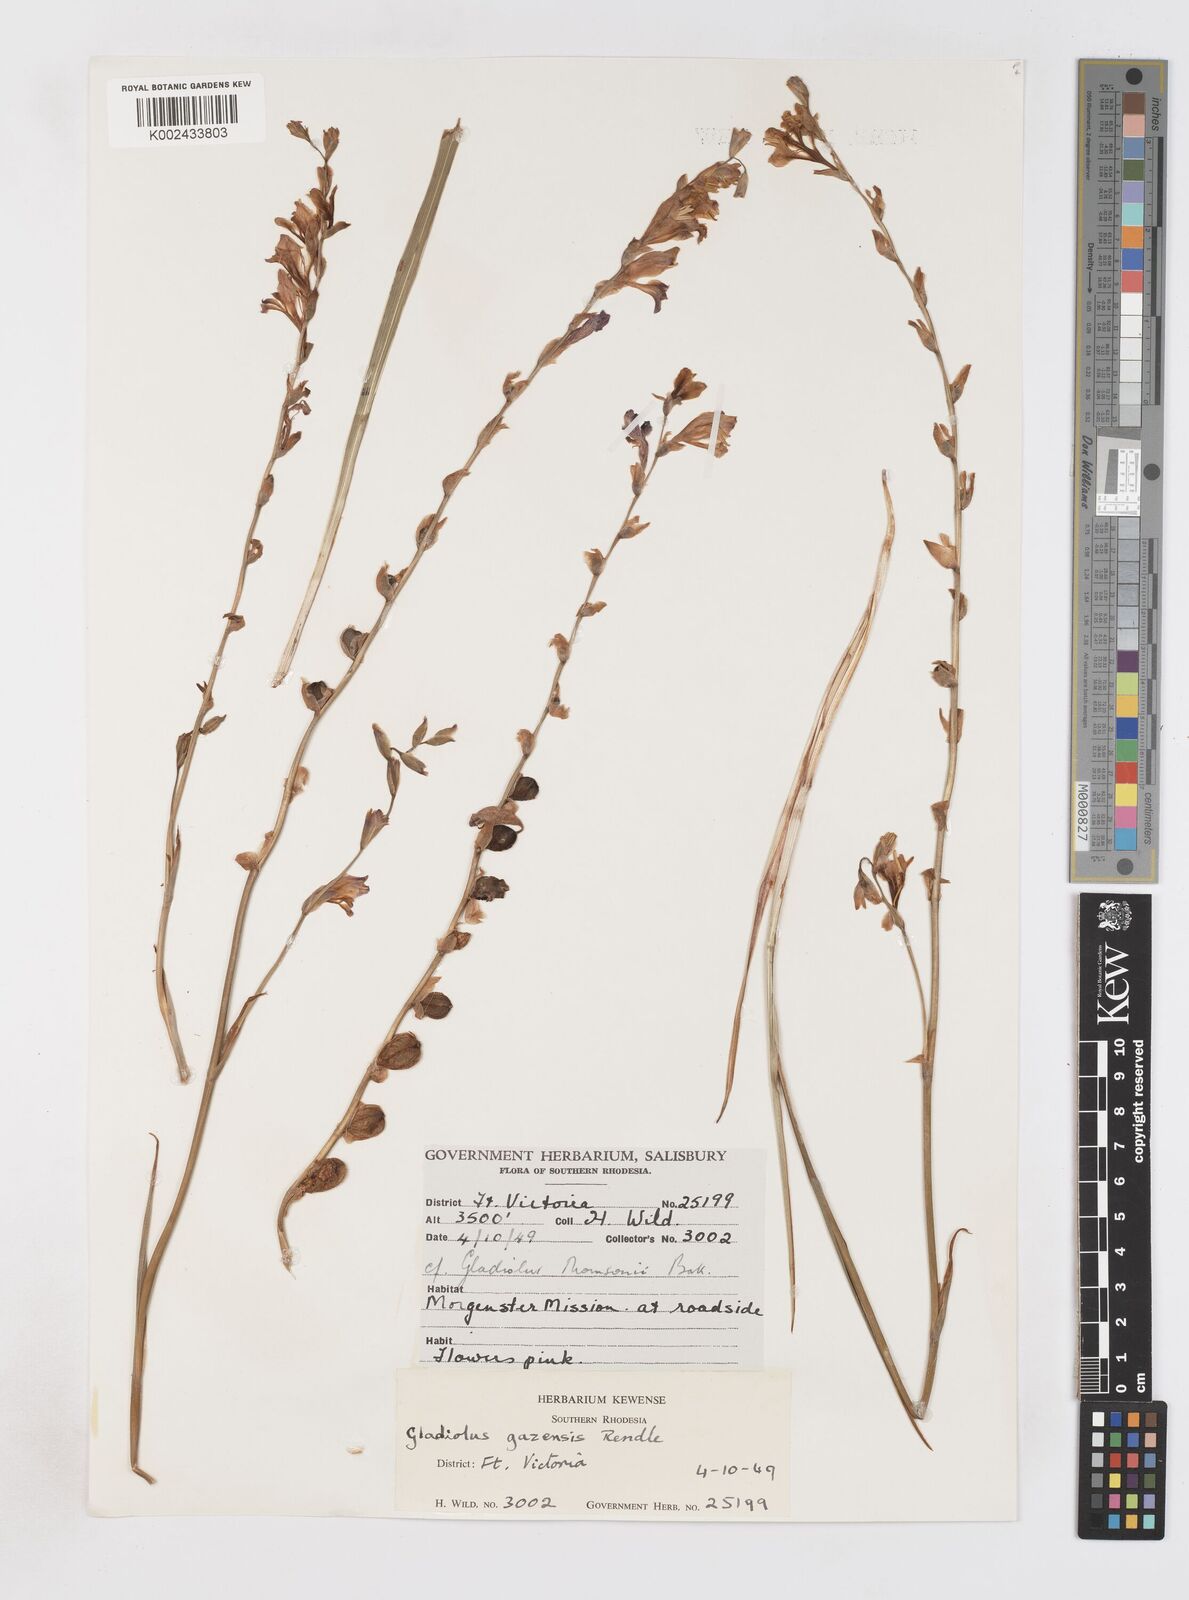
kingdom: Plantae
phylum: Tracheophyta
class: Liliopsida
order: Asparagales
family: Iridaceae
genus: Gladiolus
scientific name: Gladiolus crassifolius
